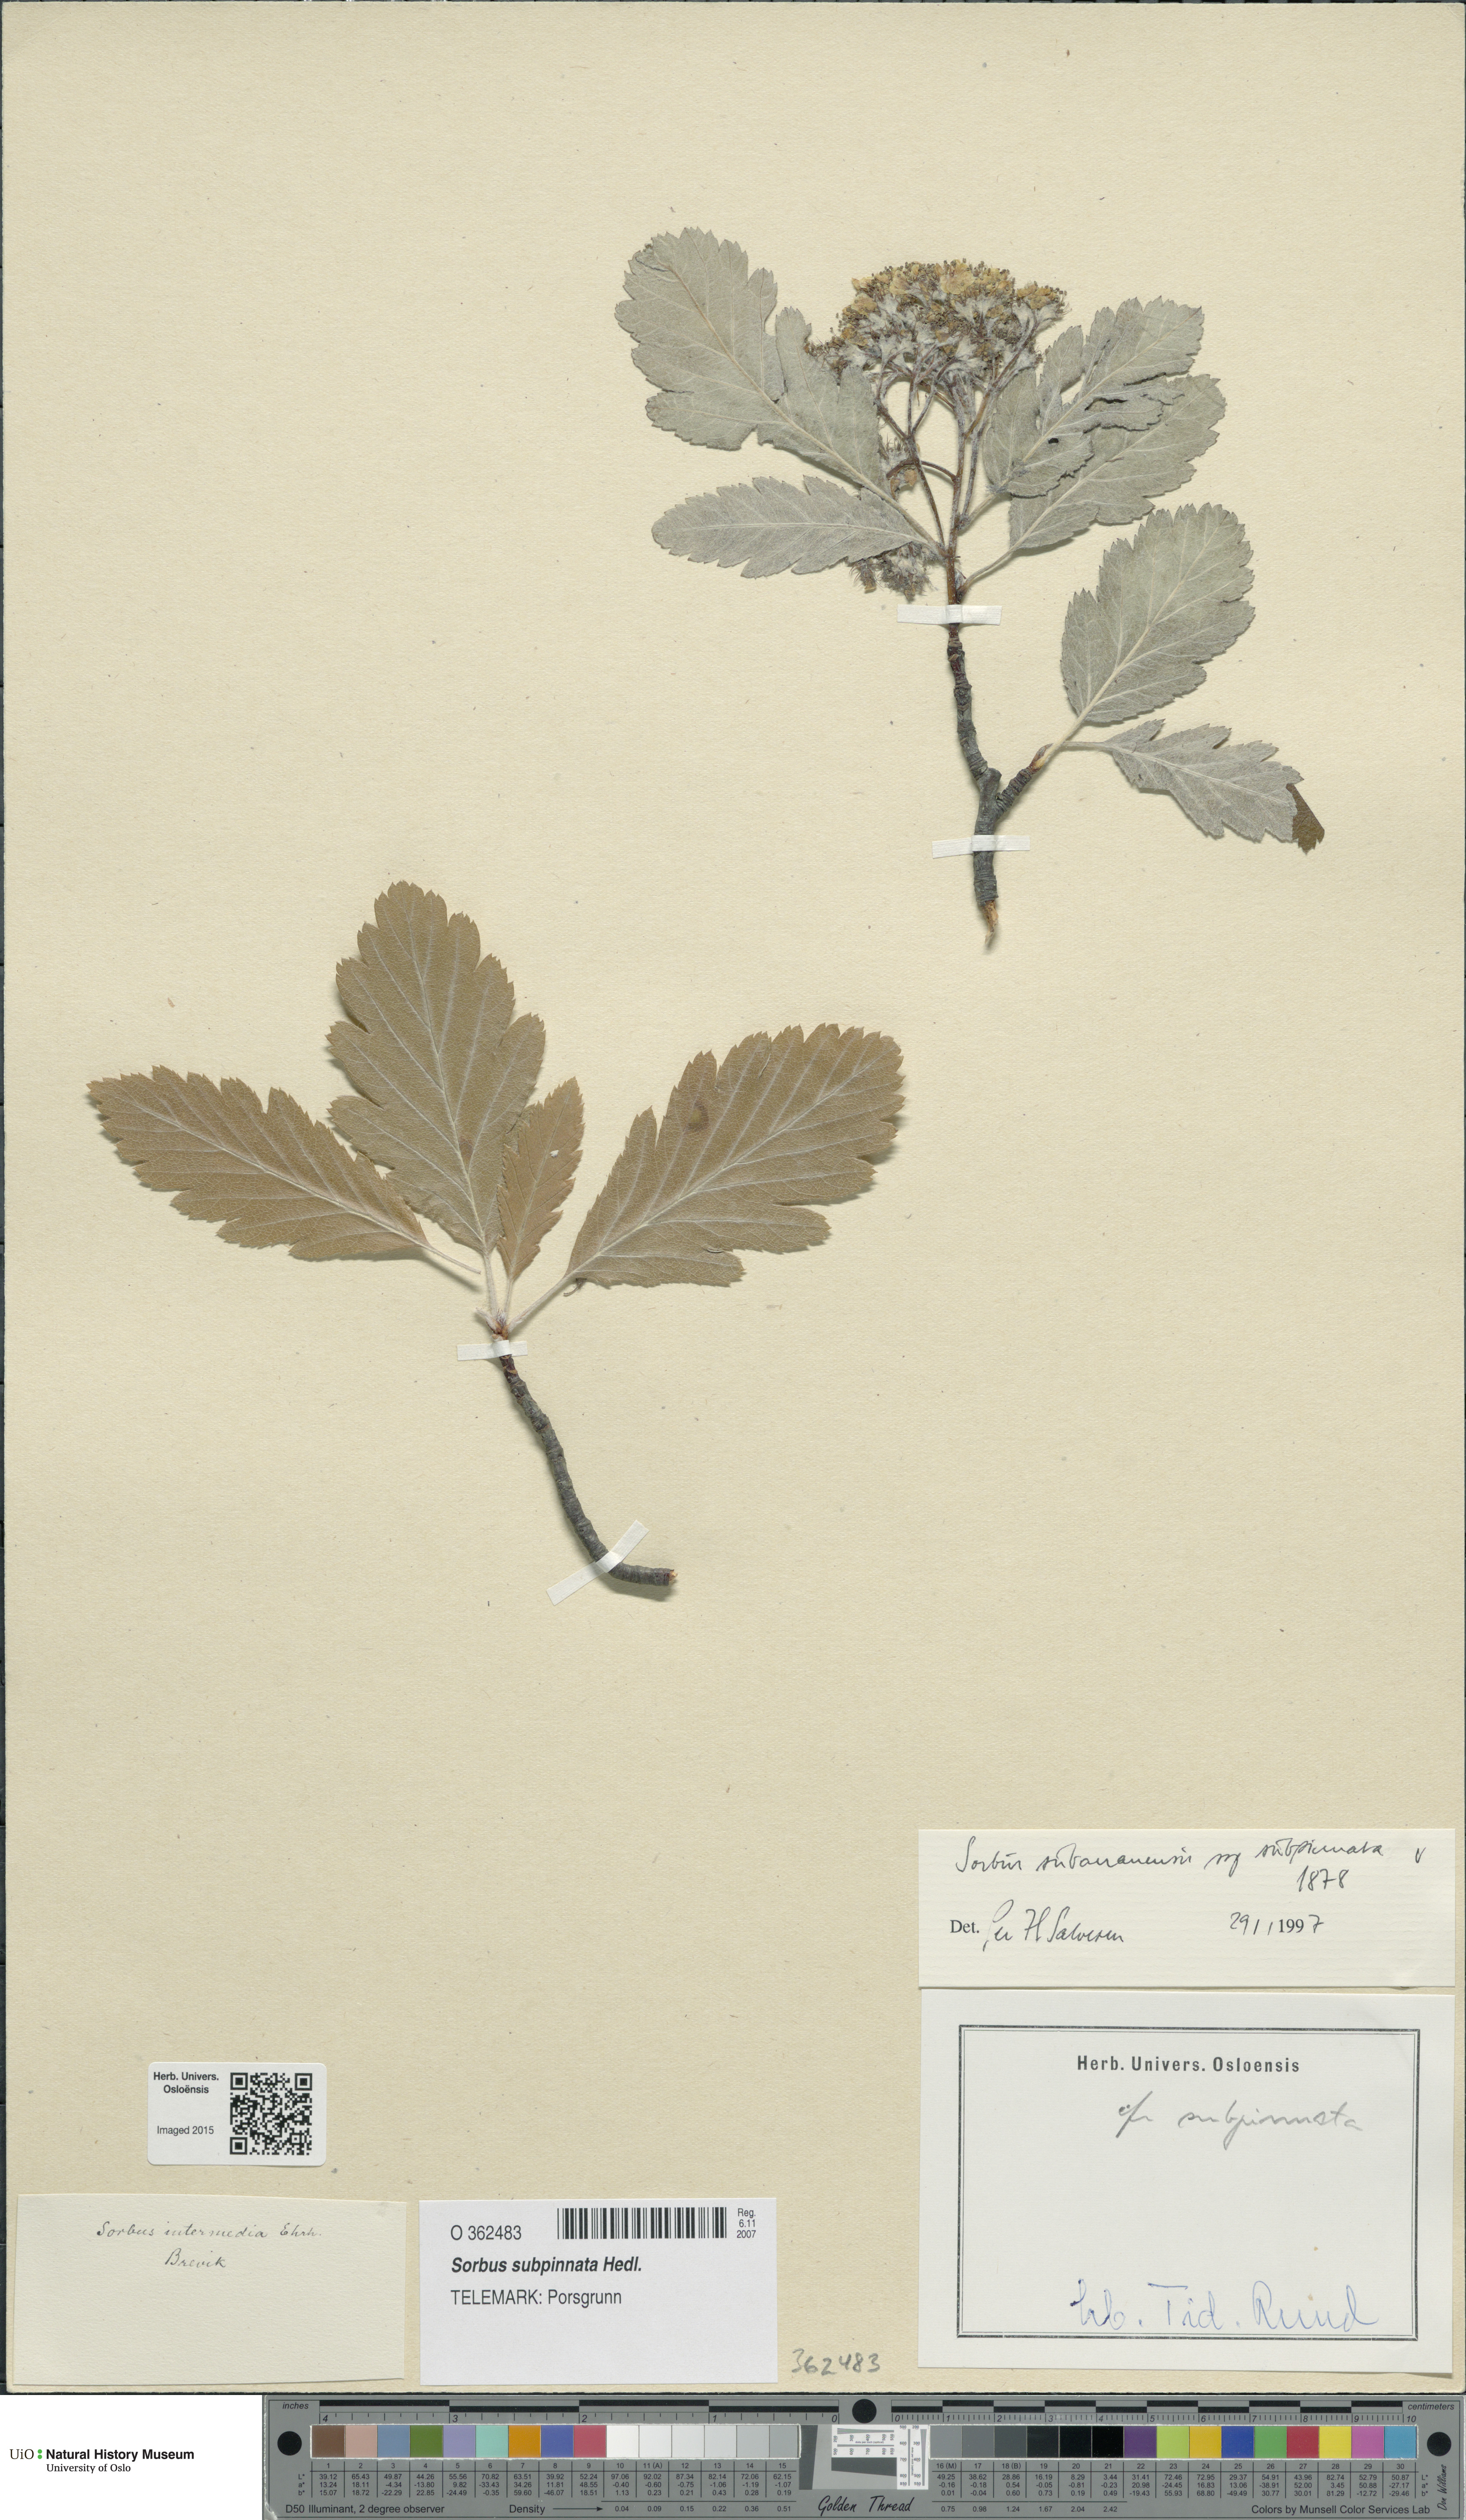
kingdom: Plantae
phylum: Tracheophyta
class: Magnoliopsida
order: Rosales
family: Rosaceae
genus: Hedlundia
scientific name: Hedlundia subpinnata
